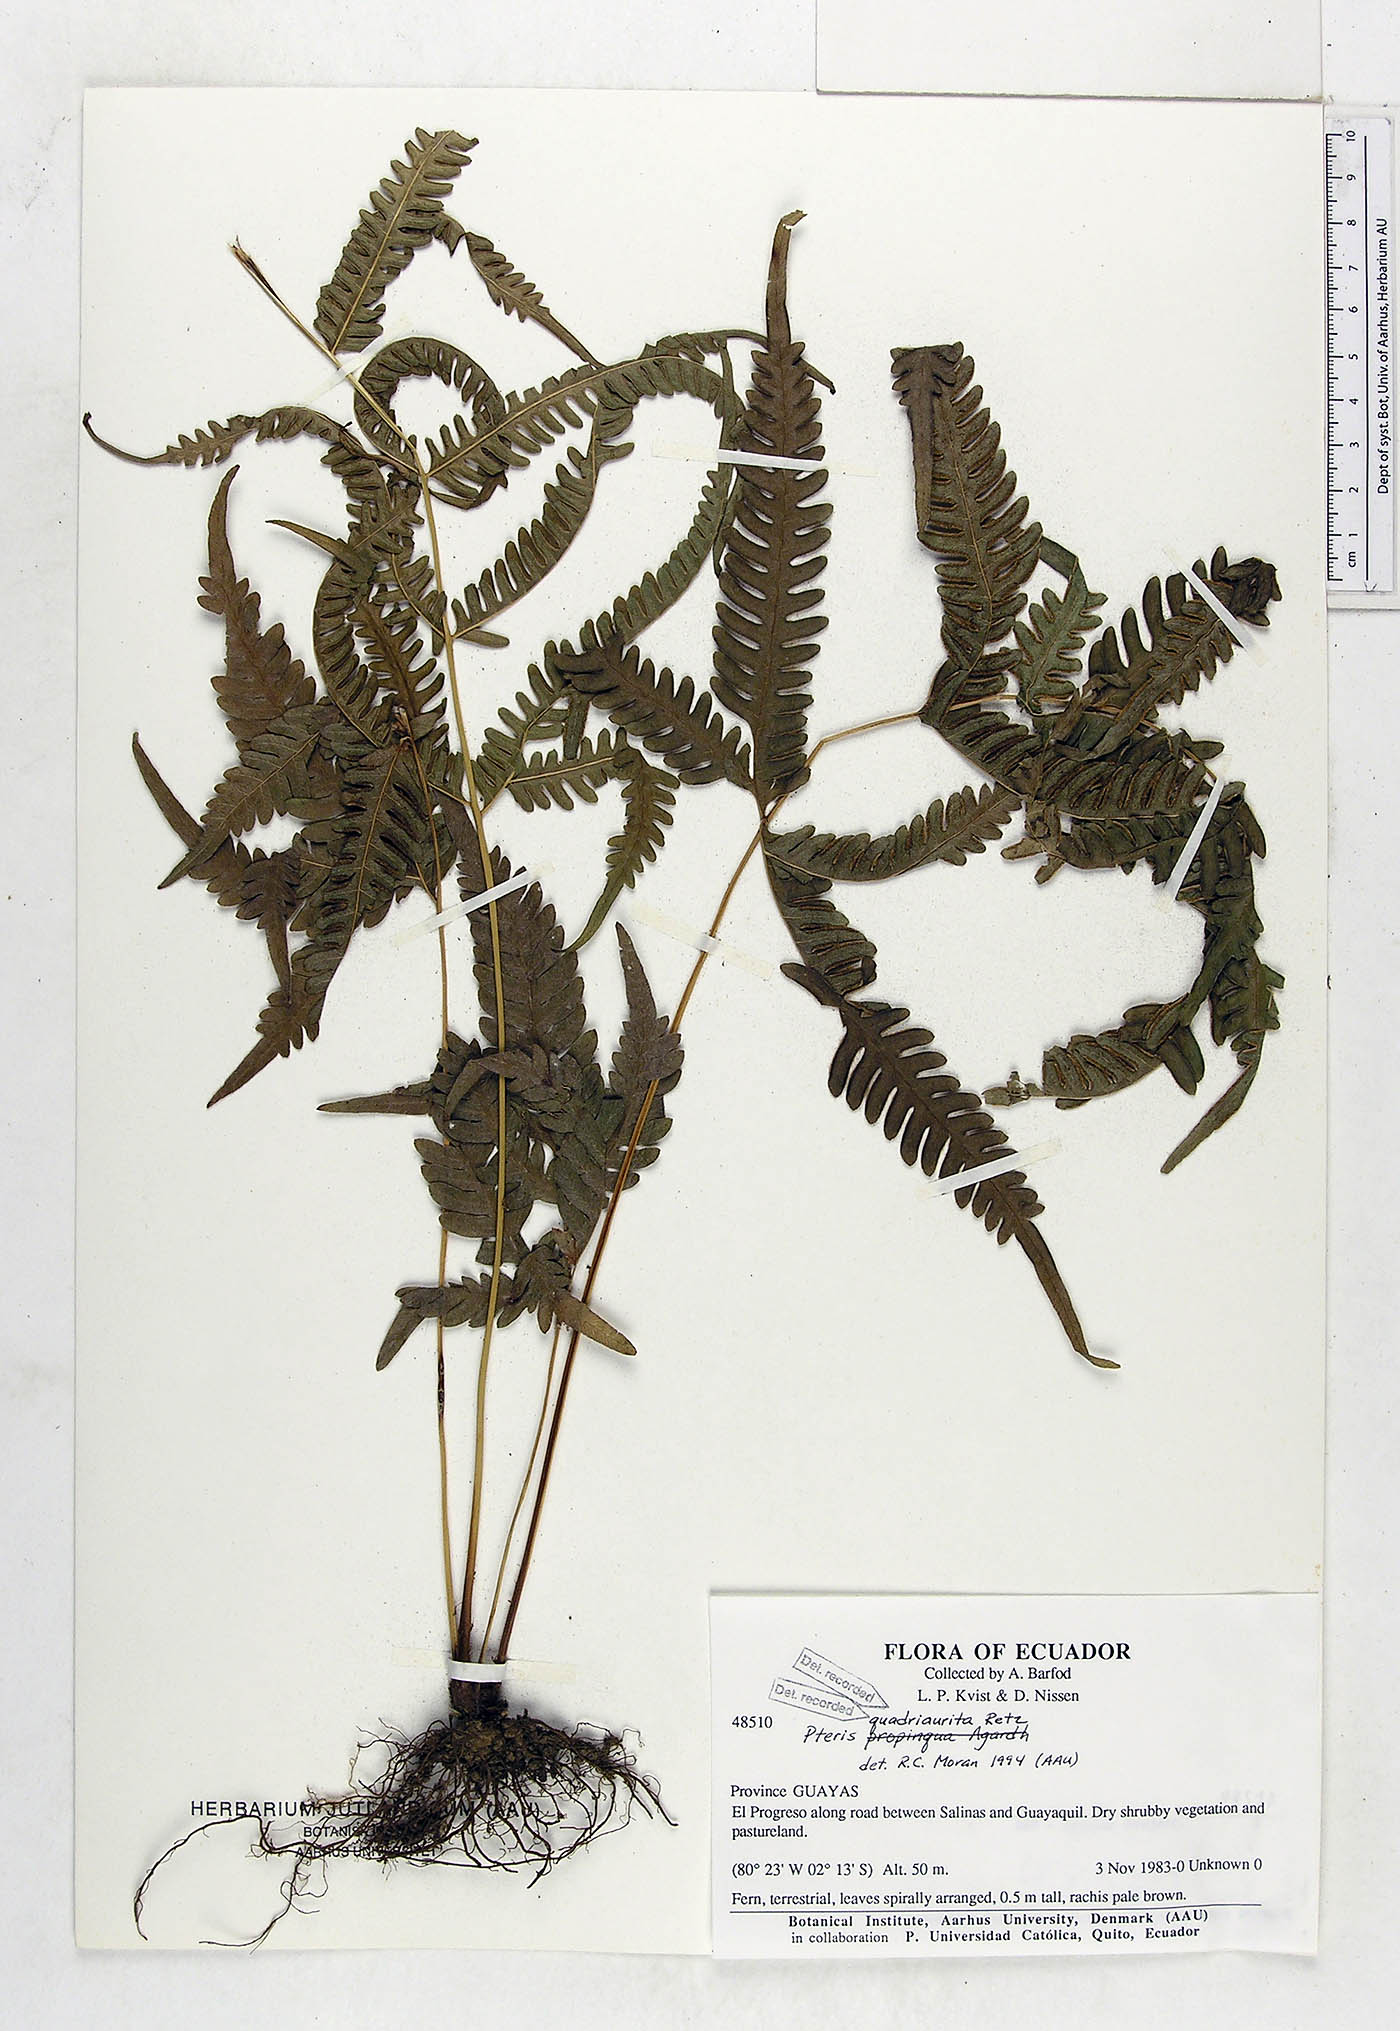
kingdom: Plantae
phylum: Tracheophyta
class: Polypodiopsida
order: Polypodiales
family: Pteridaceae
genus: Pteris
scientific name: Pteris quadriaurita
